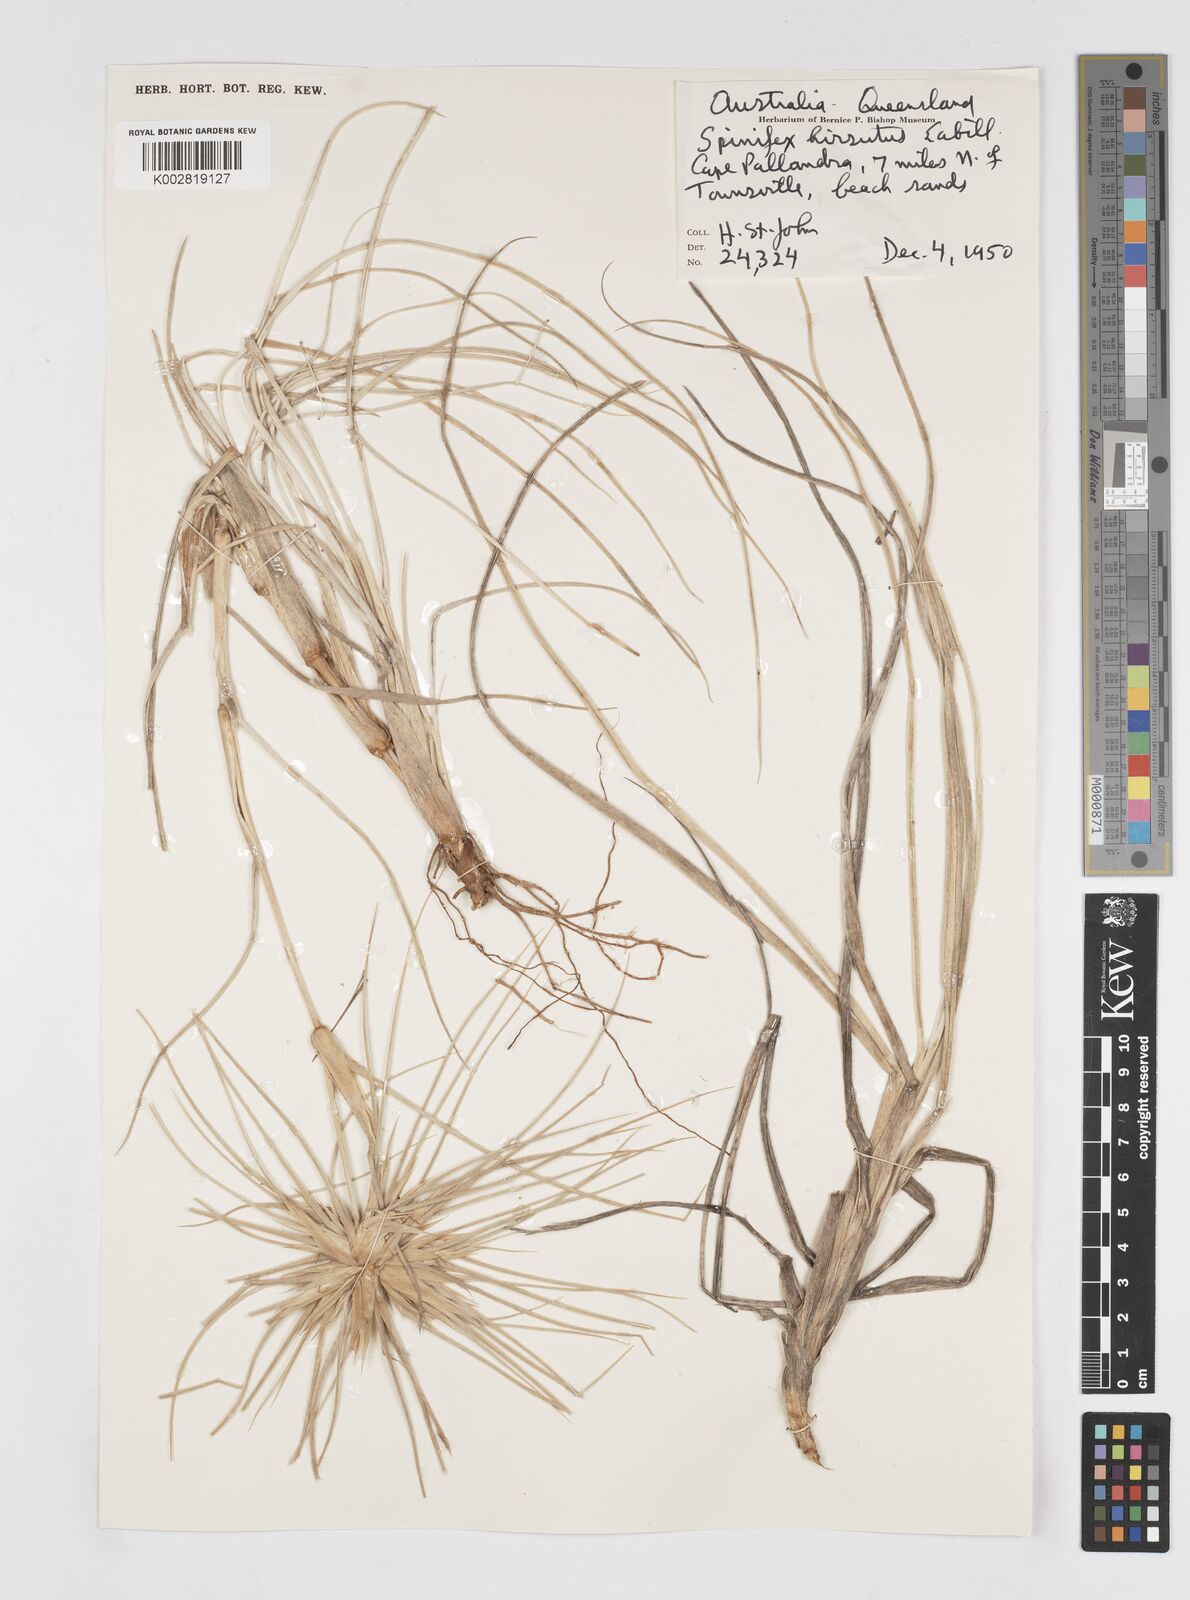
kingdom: Plantae
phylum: Tracheophyta
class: Liliopsida
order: Poales
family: Poaceae
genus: Spinifex
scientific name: Spinifex sericeus
